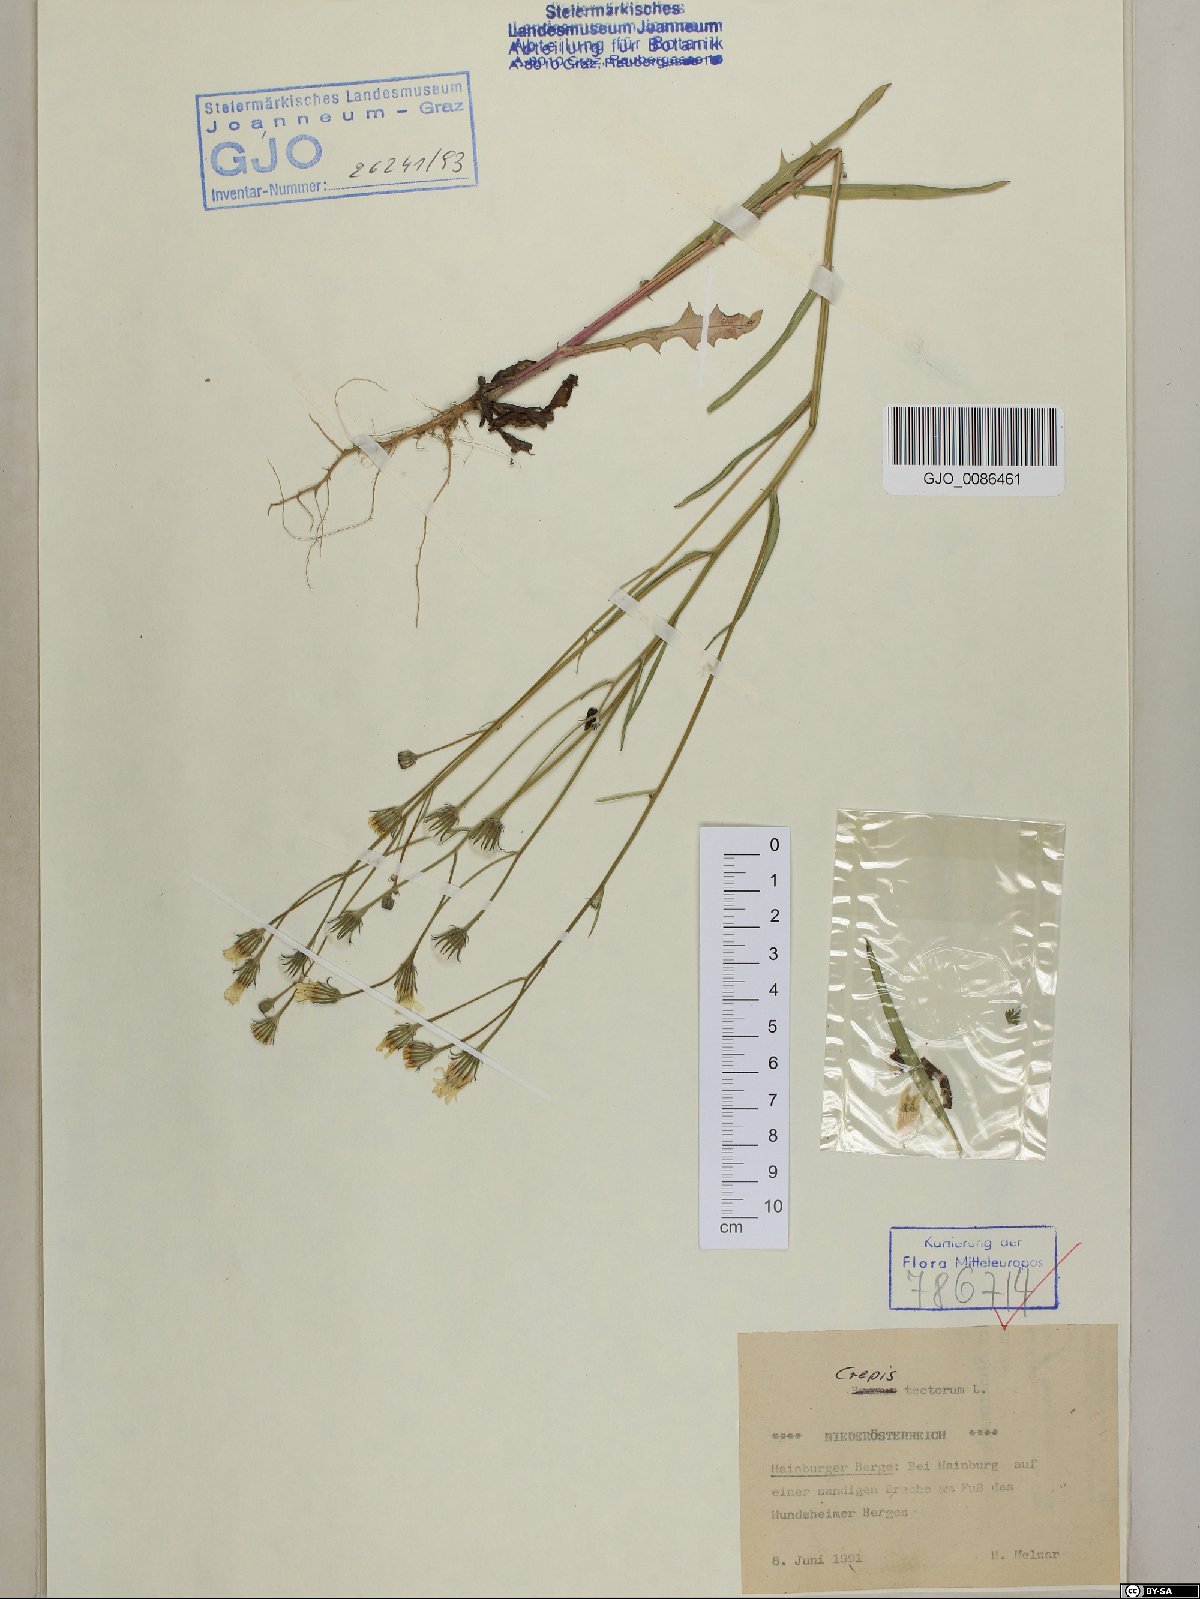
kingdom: Plantae
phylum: Tracheophyta
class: Magnoliopsida
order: Asterales
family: Asteraceae
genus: Crepis
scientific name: Crepis tectorum
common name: Narrow-leaved hawk's-beard
